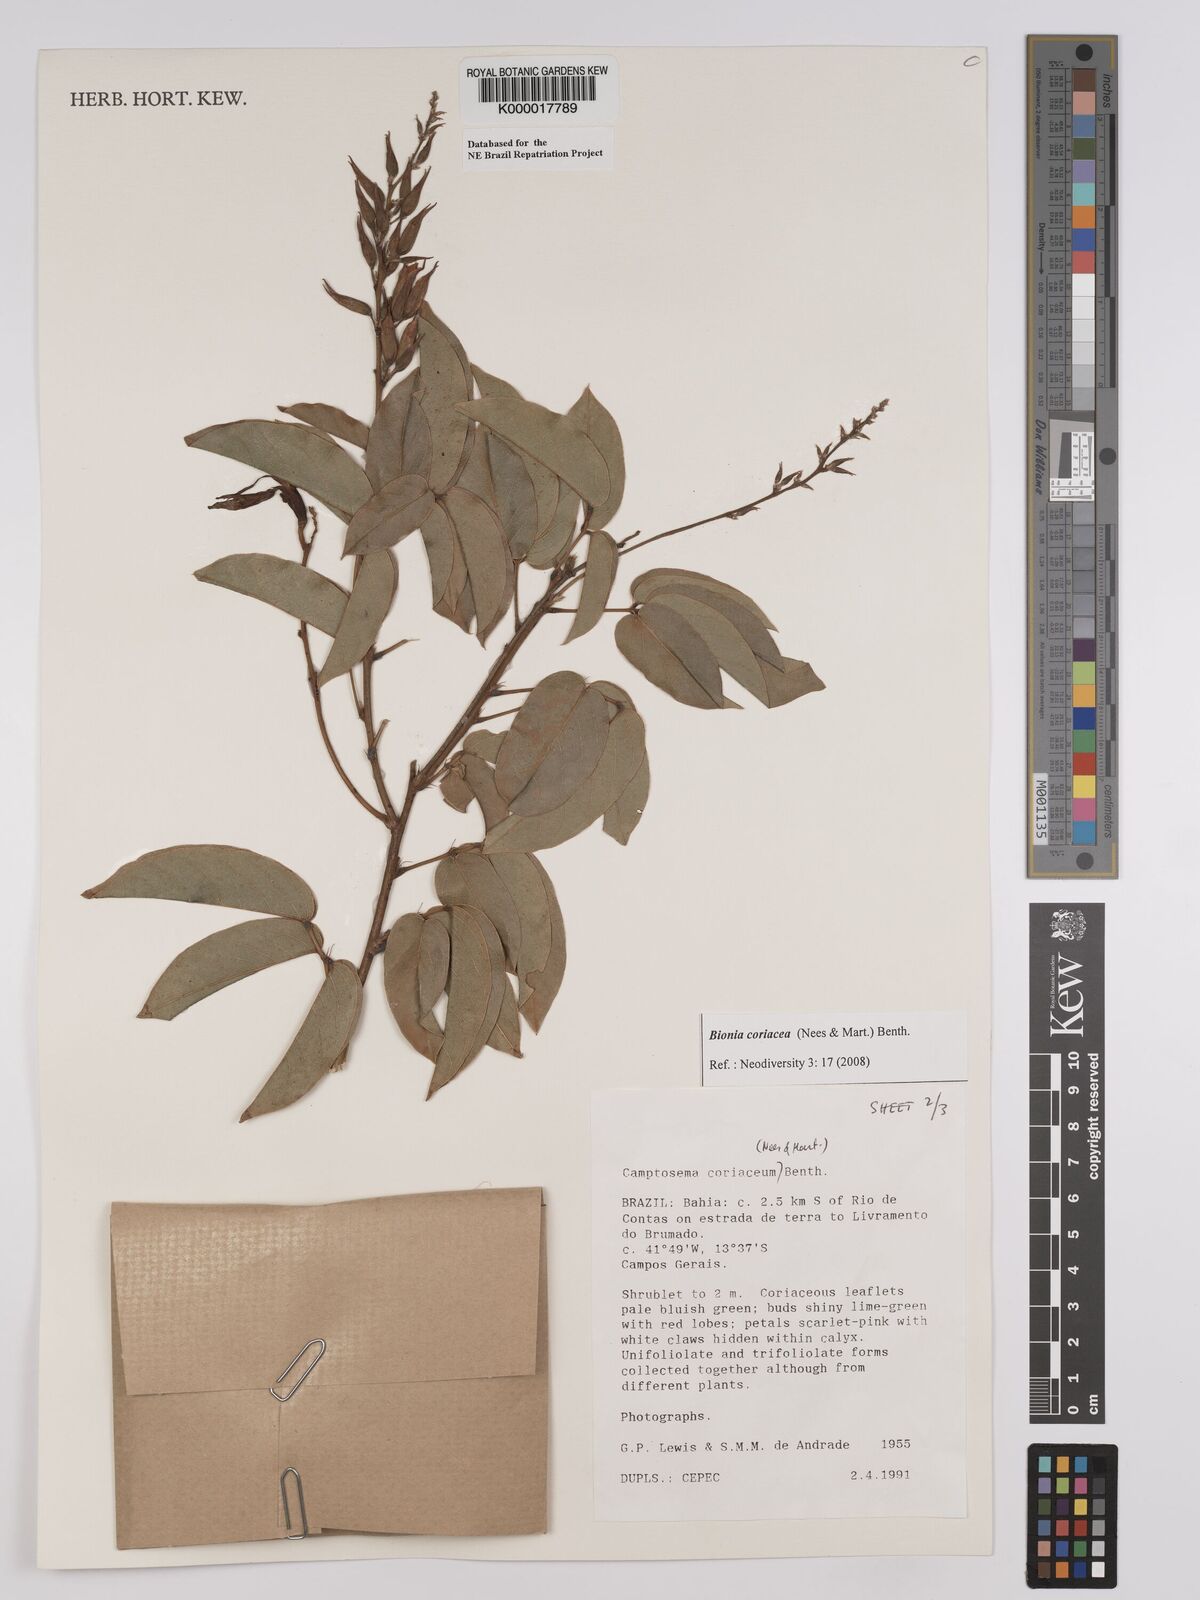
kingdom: Plantae
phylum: Tracheophyta
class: Magnoliopsida
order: Fabales
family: Fabaceae
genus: Camptosema
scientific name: Camptosema coriaceum
